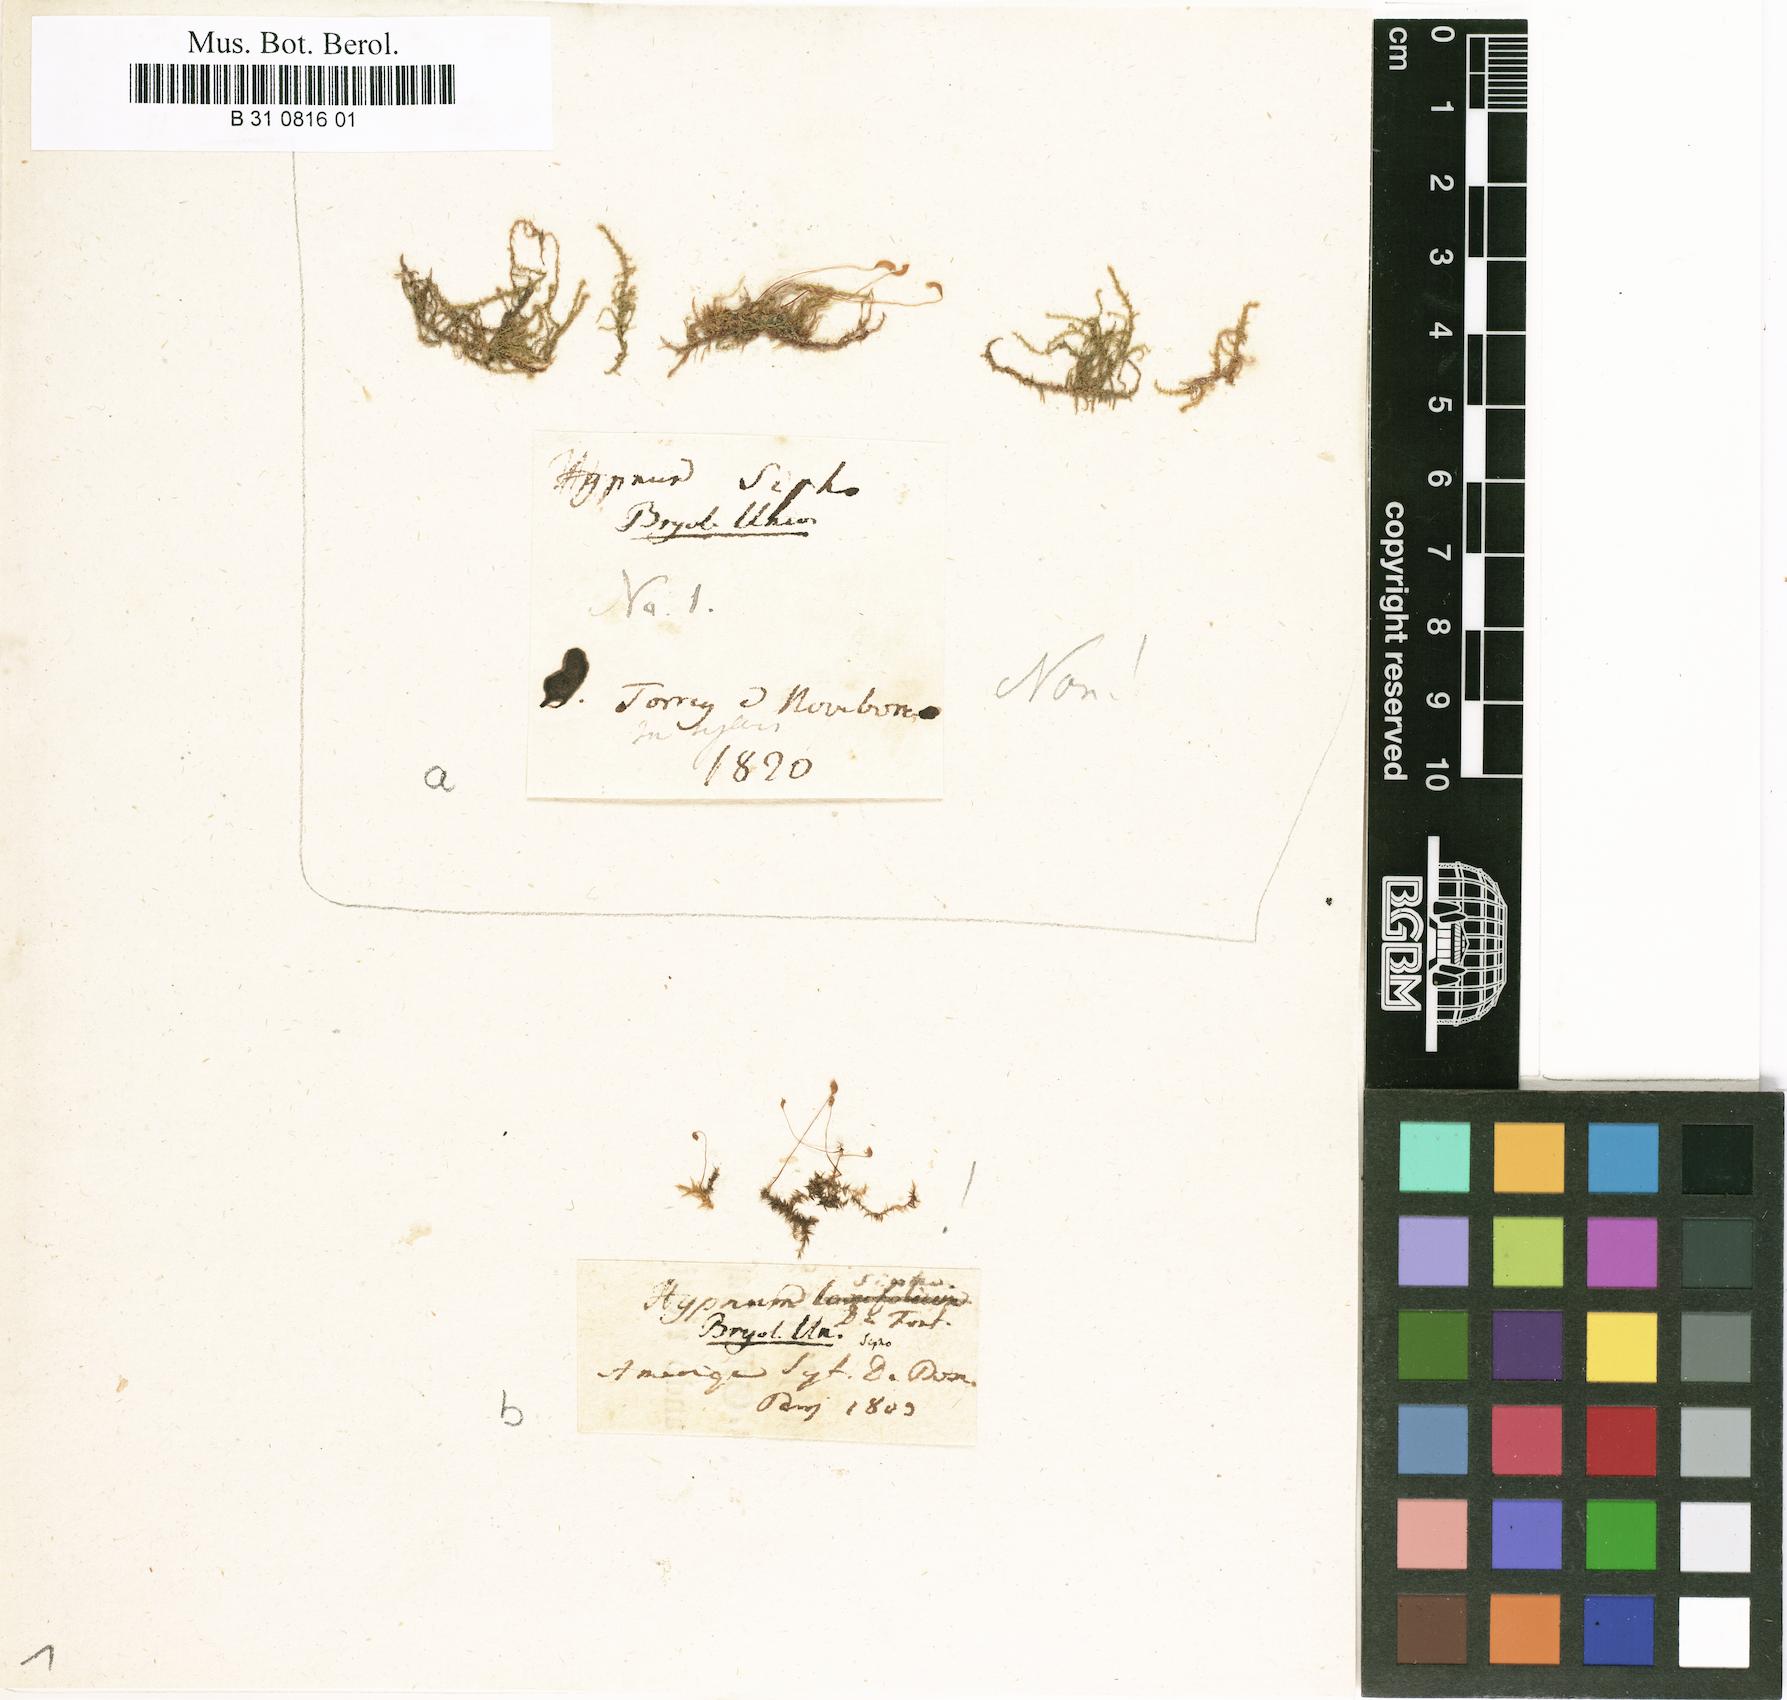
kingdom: Plantae
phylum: Bryophyta
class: Bryopsida
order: Hypnales
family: Amblystegiaceae
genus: Leptodictyum
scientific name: Leptodictyum riparium
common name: Riparian feather moss
